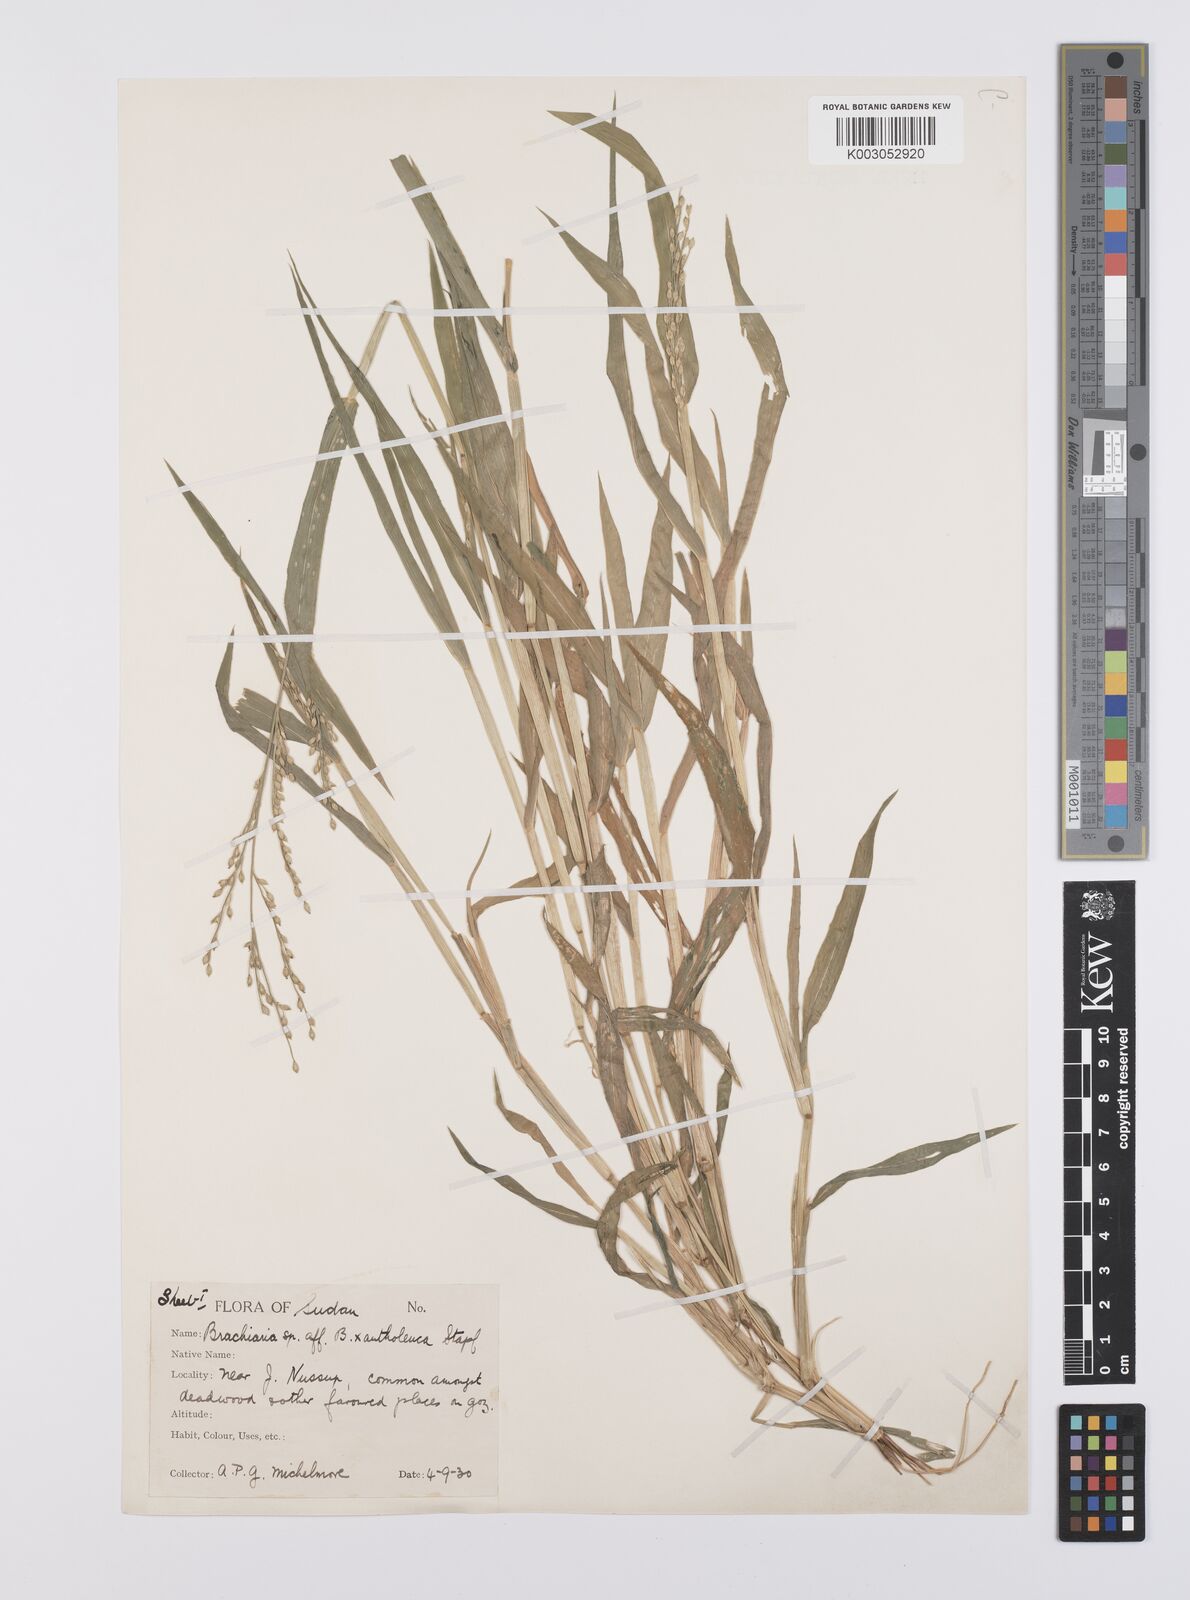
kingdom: Plantae
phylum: Tracheophyta
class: Liliopsida
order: Poales
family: Poaceae
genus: Urochloa
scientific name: Urochloa ramosa
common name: Browntop millet
